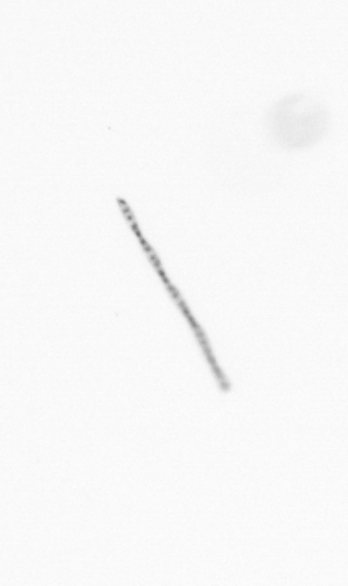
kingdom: Chromista
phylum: Ochrophyta
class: Bacillariophyceae
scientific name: Bacillariophyceae
